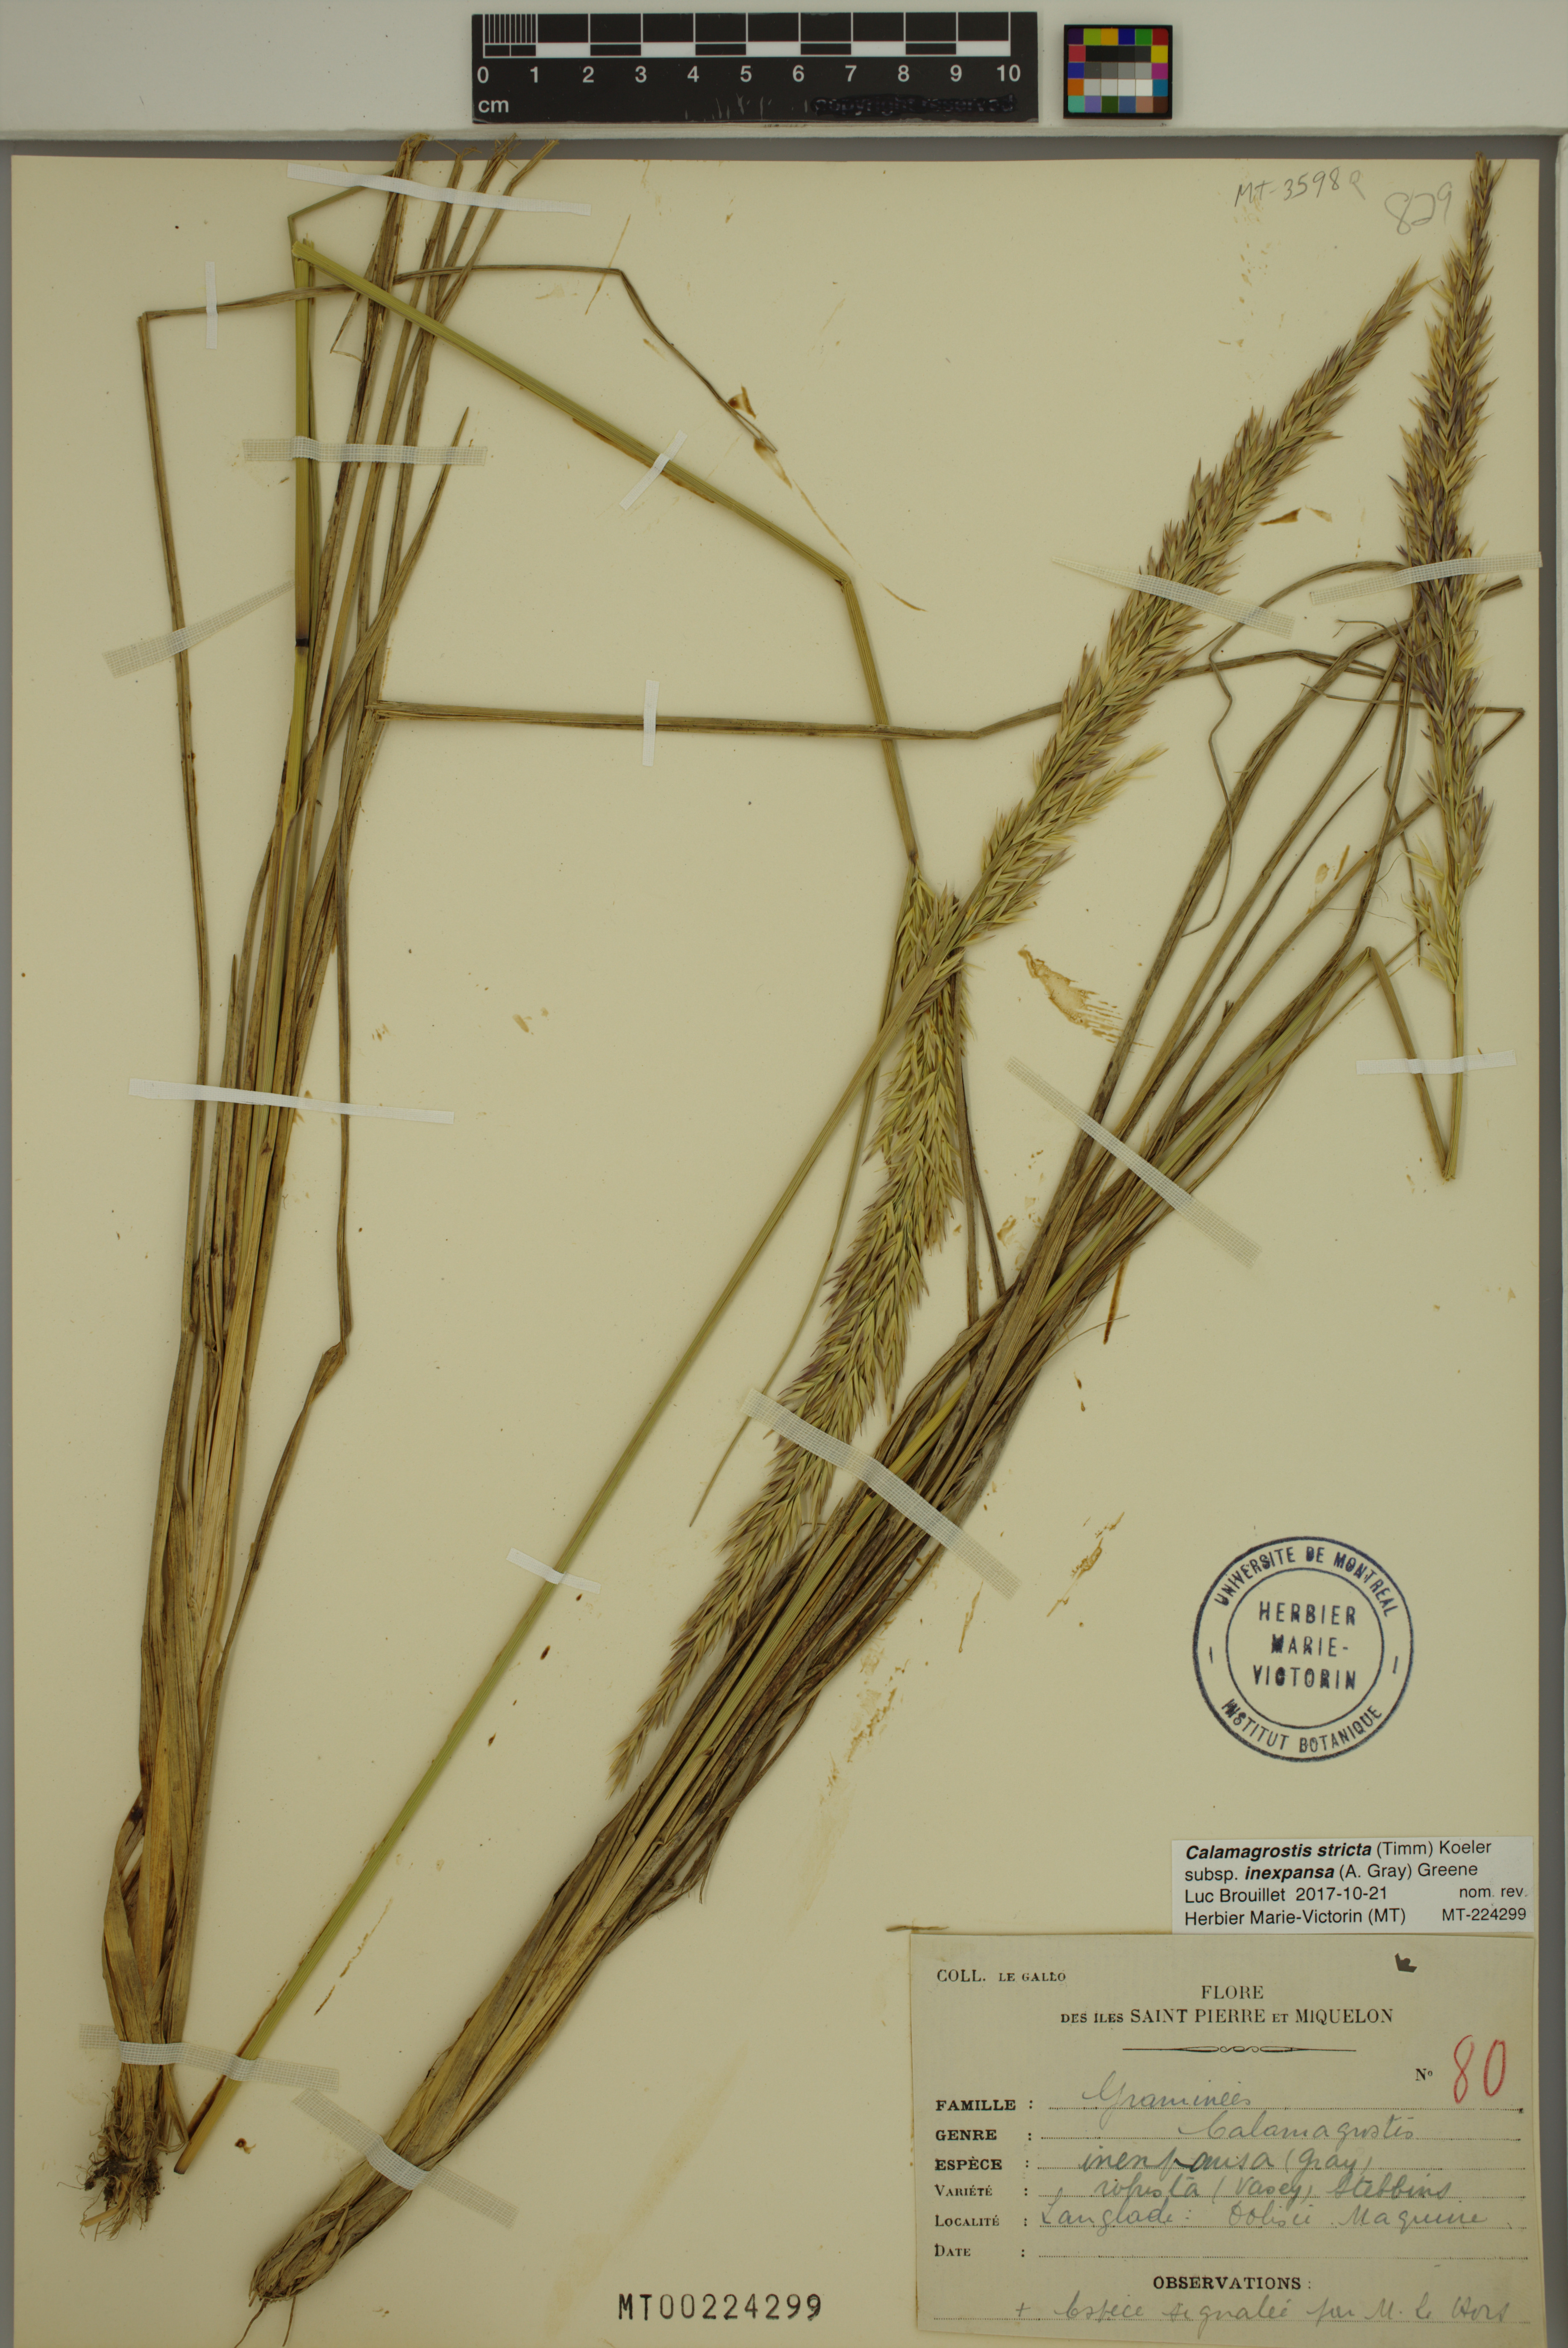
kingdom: Plantae
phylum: Tracheophyta
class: Liliopsida
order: Poales
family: Poaceae
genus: Calamagrostis
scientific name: Calamagrostis inexpansa
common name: Northern reedgrass
